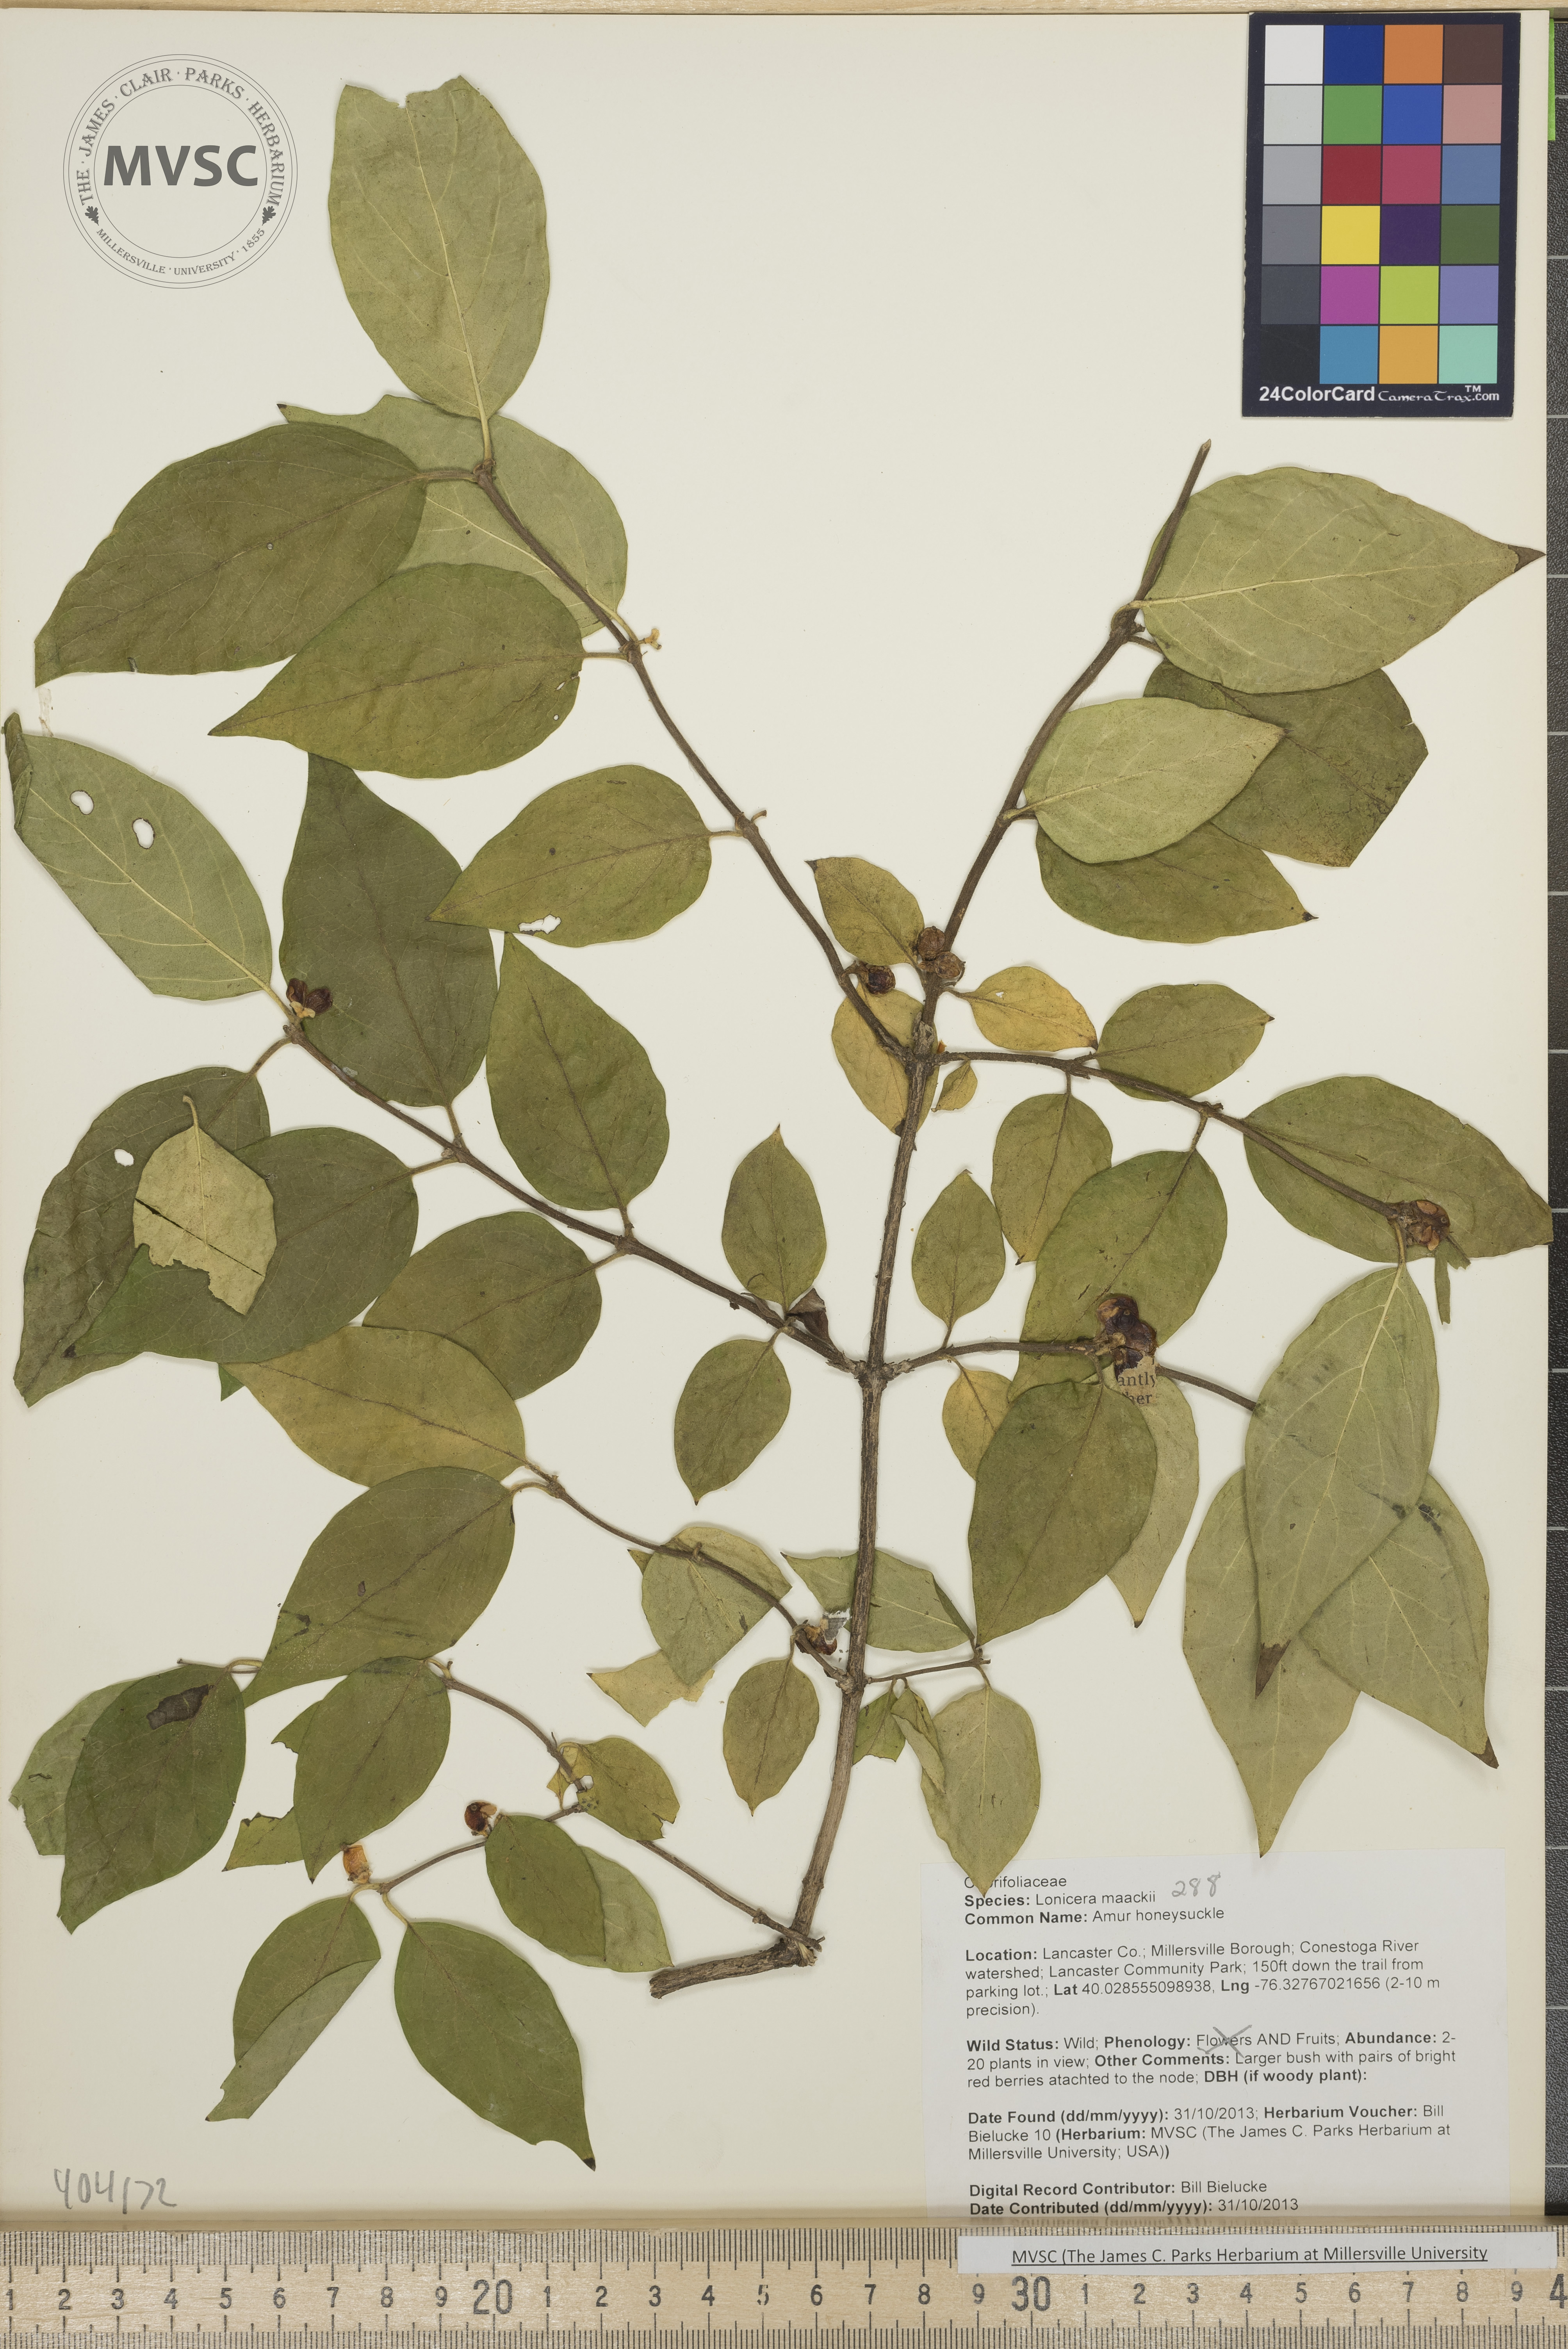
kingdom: Plantae
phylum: Tracheophyta
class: Magnoliopsida
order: Dipsacales
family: Caprifoliaceae
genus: Lonicera
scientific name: Lonicera maackii
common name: Amur honeysuckle
